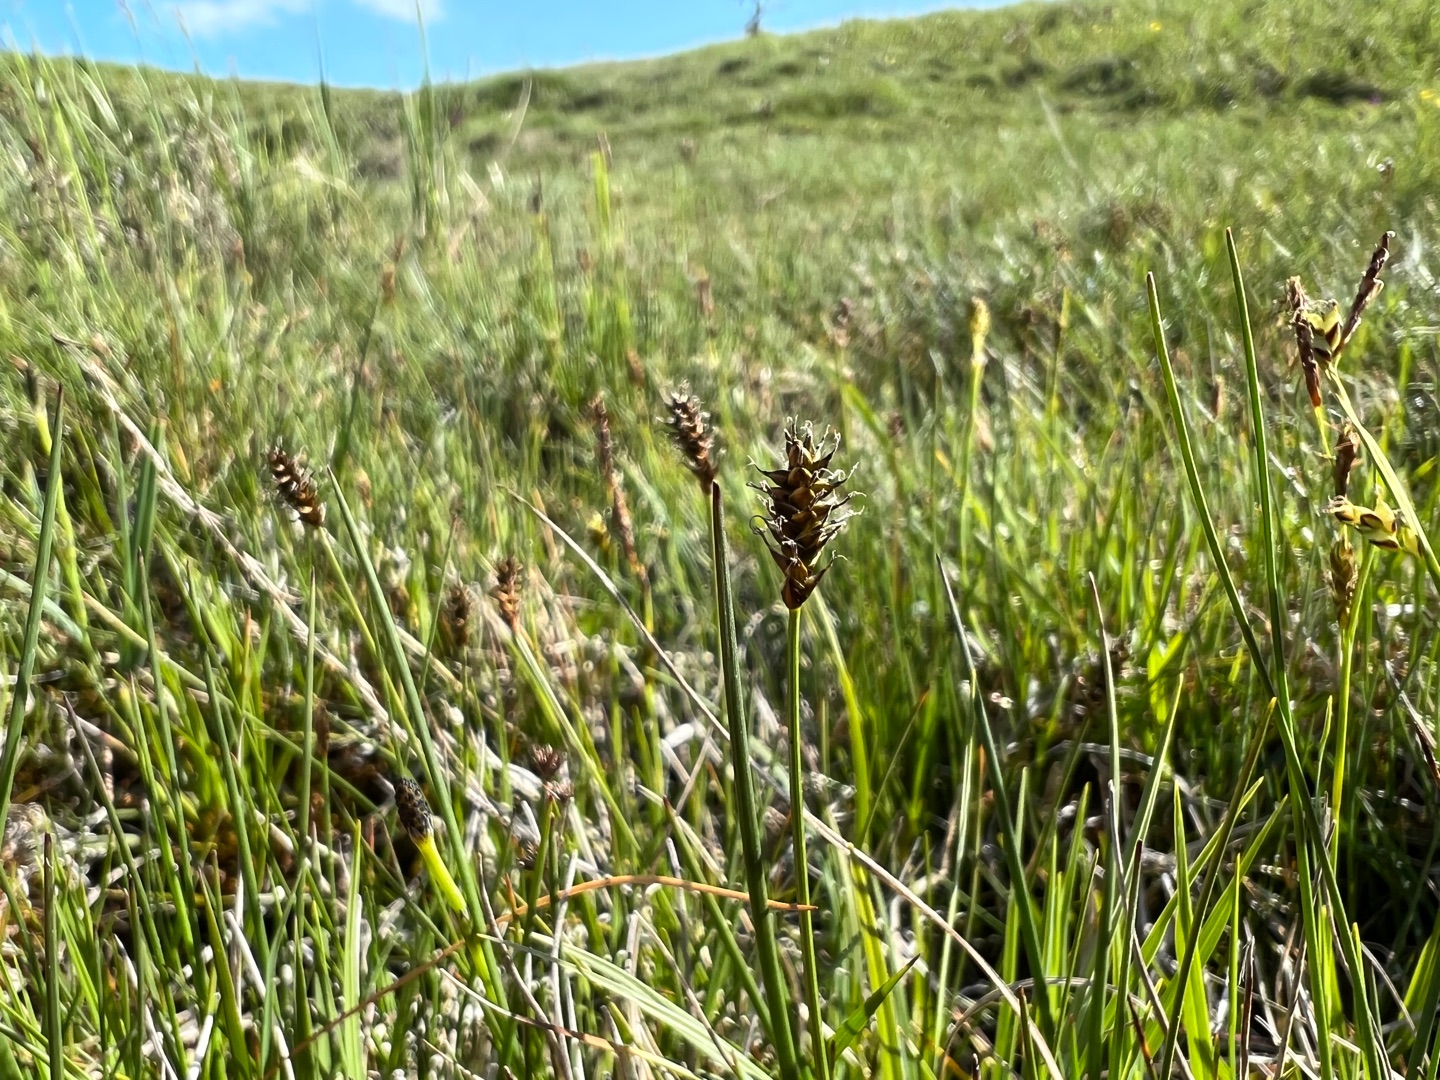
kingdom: Plantae
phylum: Tracheophyta
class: Liliopsida
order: Poales
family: Cyperaceae
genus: Carex
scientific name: Carex dioica
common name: Tvebo star
